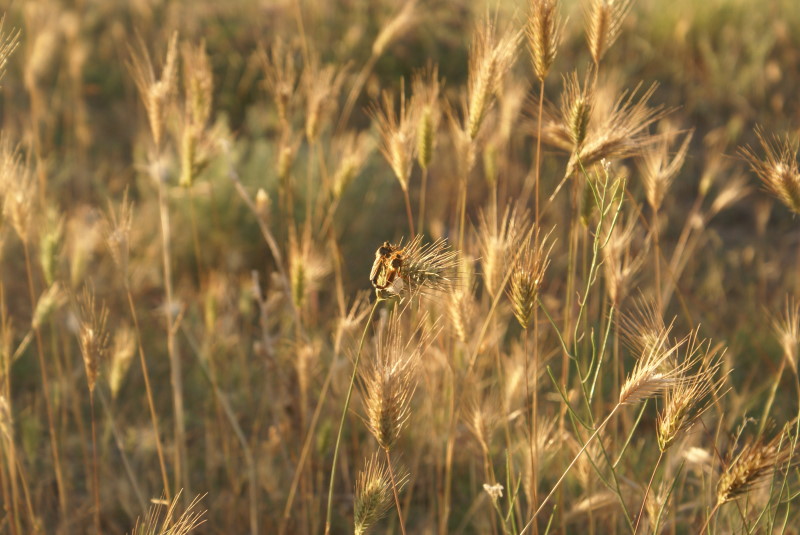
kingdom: Plantae
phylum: Tracheophyta
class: Liliopsida
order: Poales
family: Poaceae
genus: Hordeum
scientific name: Hordeum marinum
